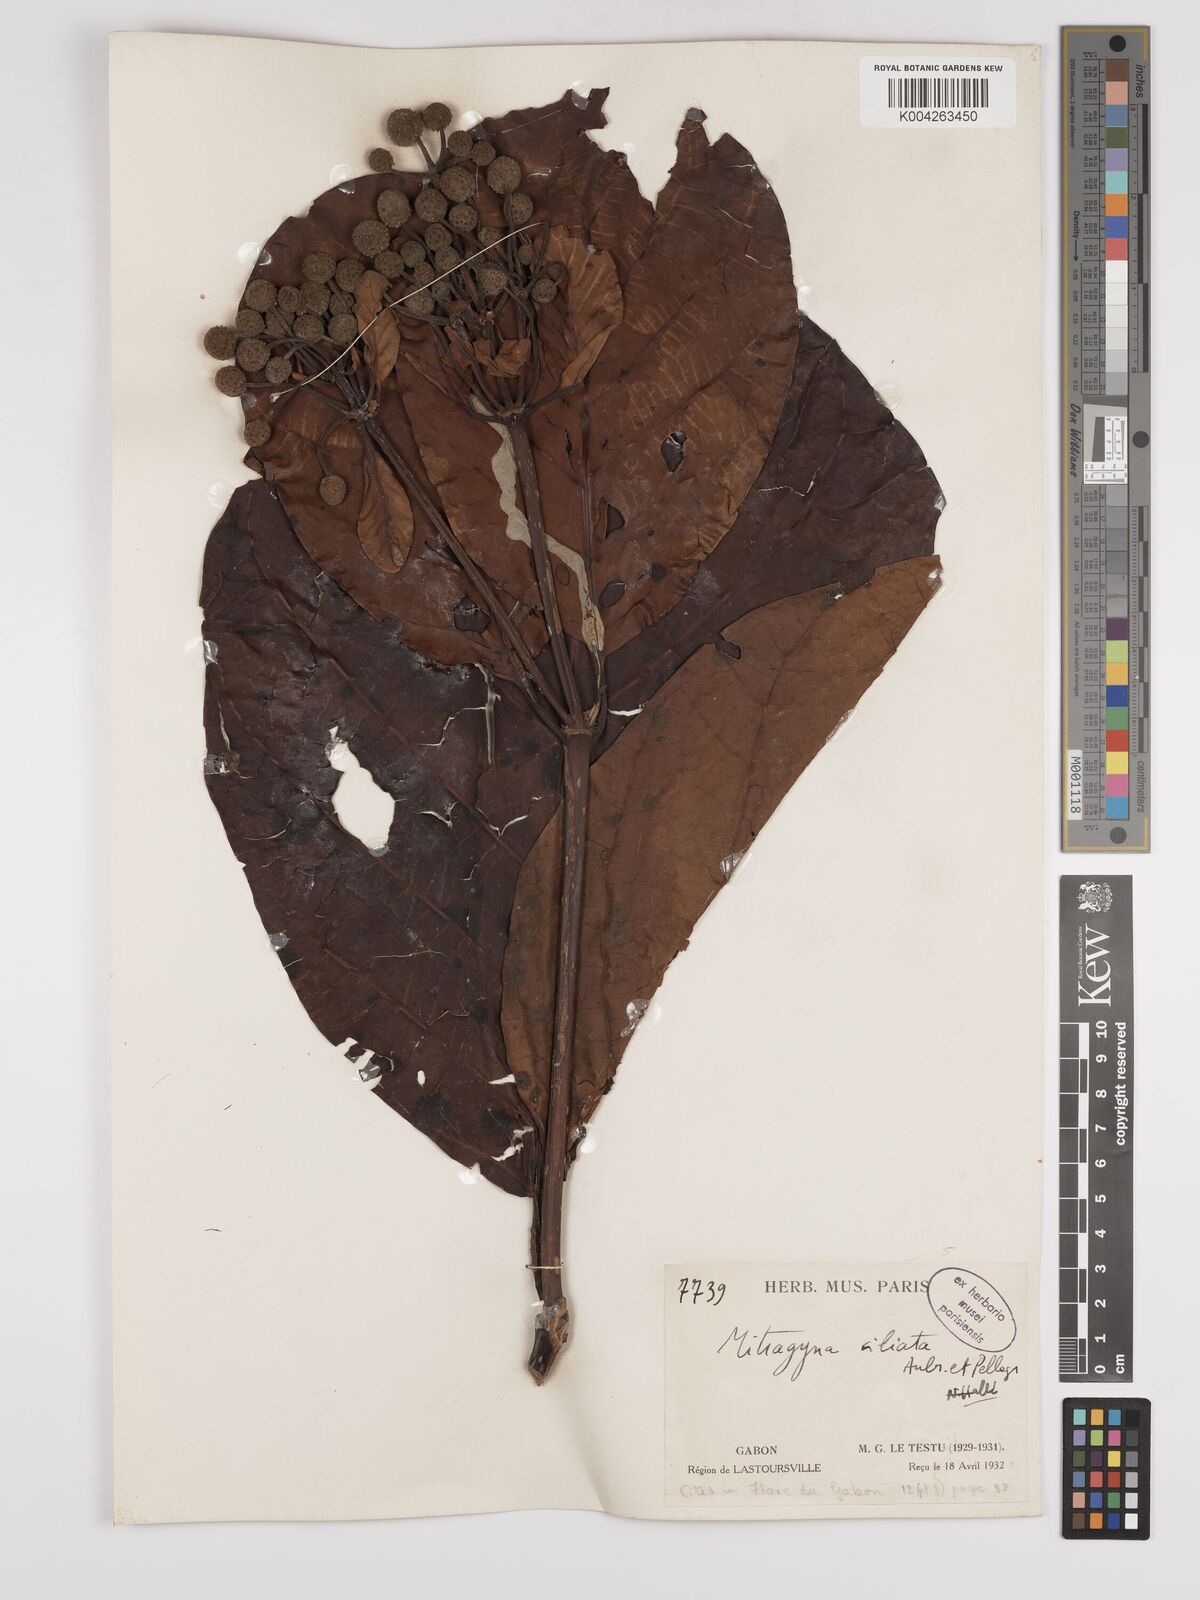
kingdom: Plantae
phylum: Tracheophyta
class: Magnoliopsida
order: Gentianales
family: Rubiaceae
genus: Mitragyna
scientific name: Mitragyna stipulosa
